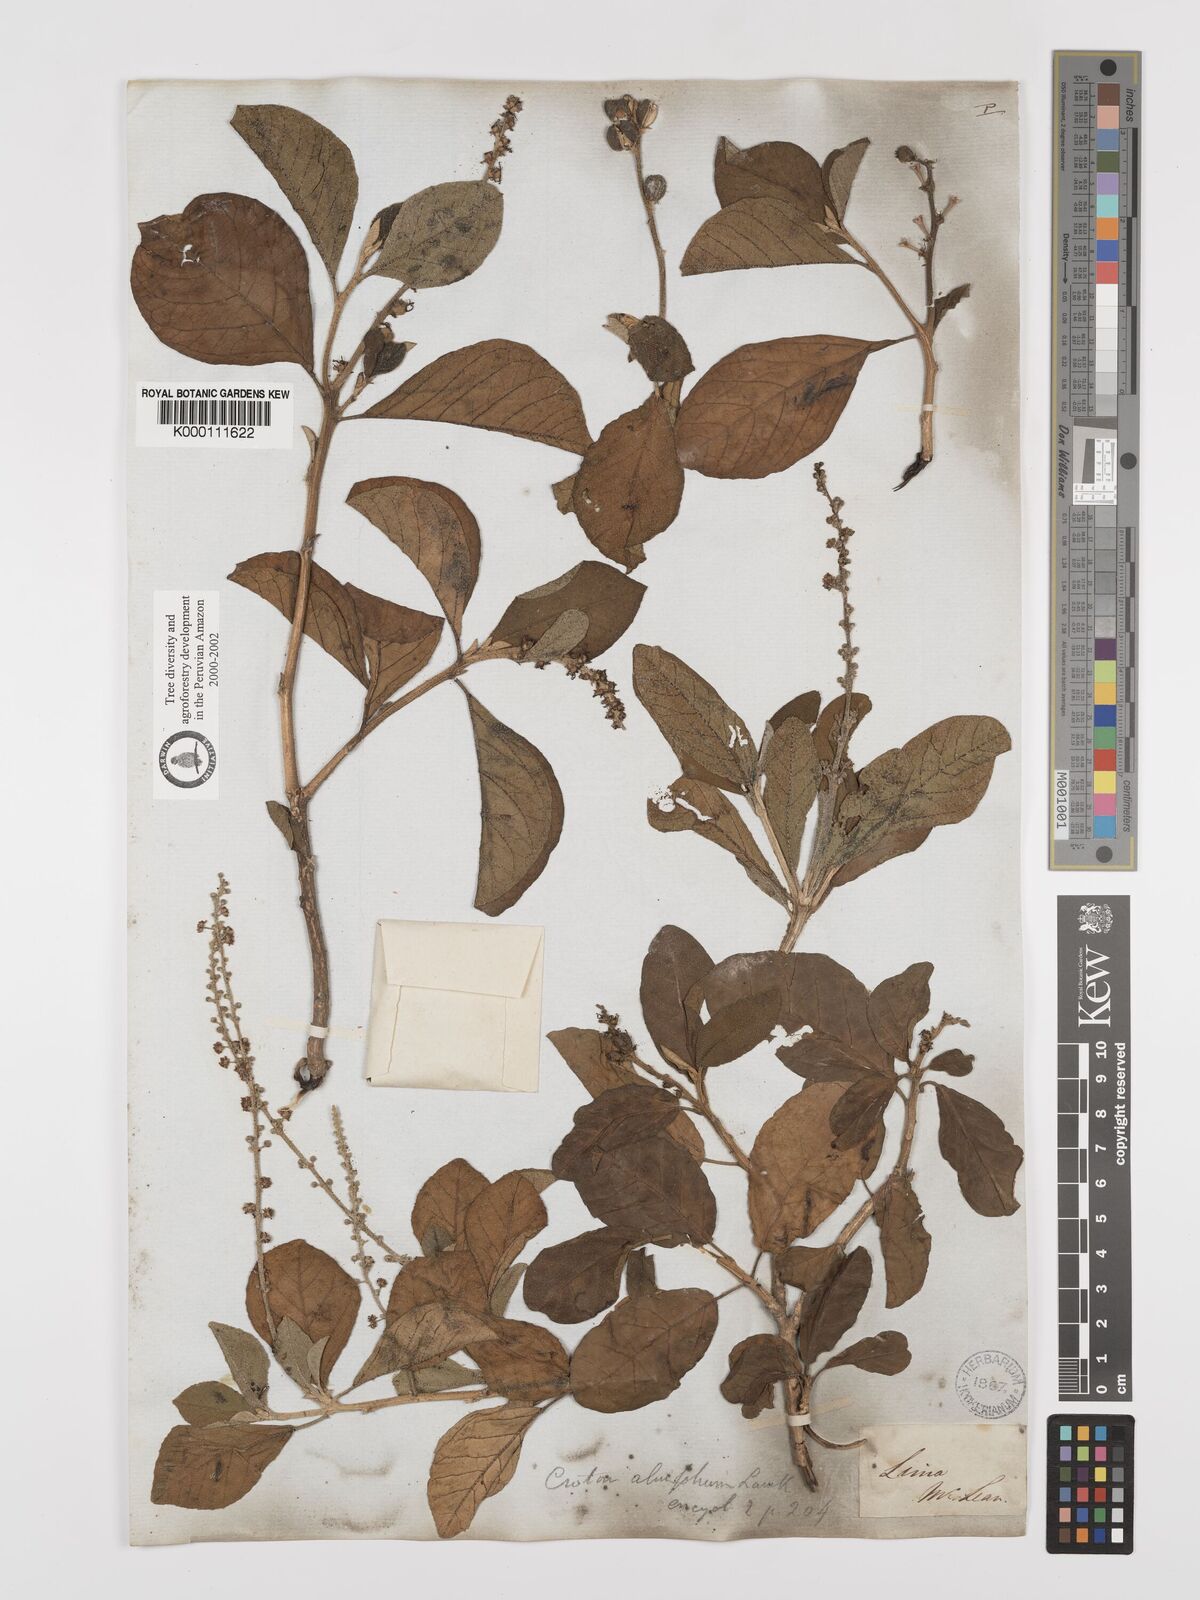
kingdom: Plantae
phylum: Tracheophyta
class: Magnoliopsida
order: Malpighiales
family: Euphorbiaceae
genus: Croton
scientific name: Croton alnifolius
